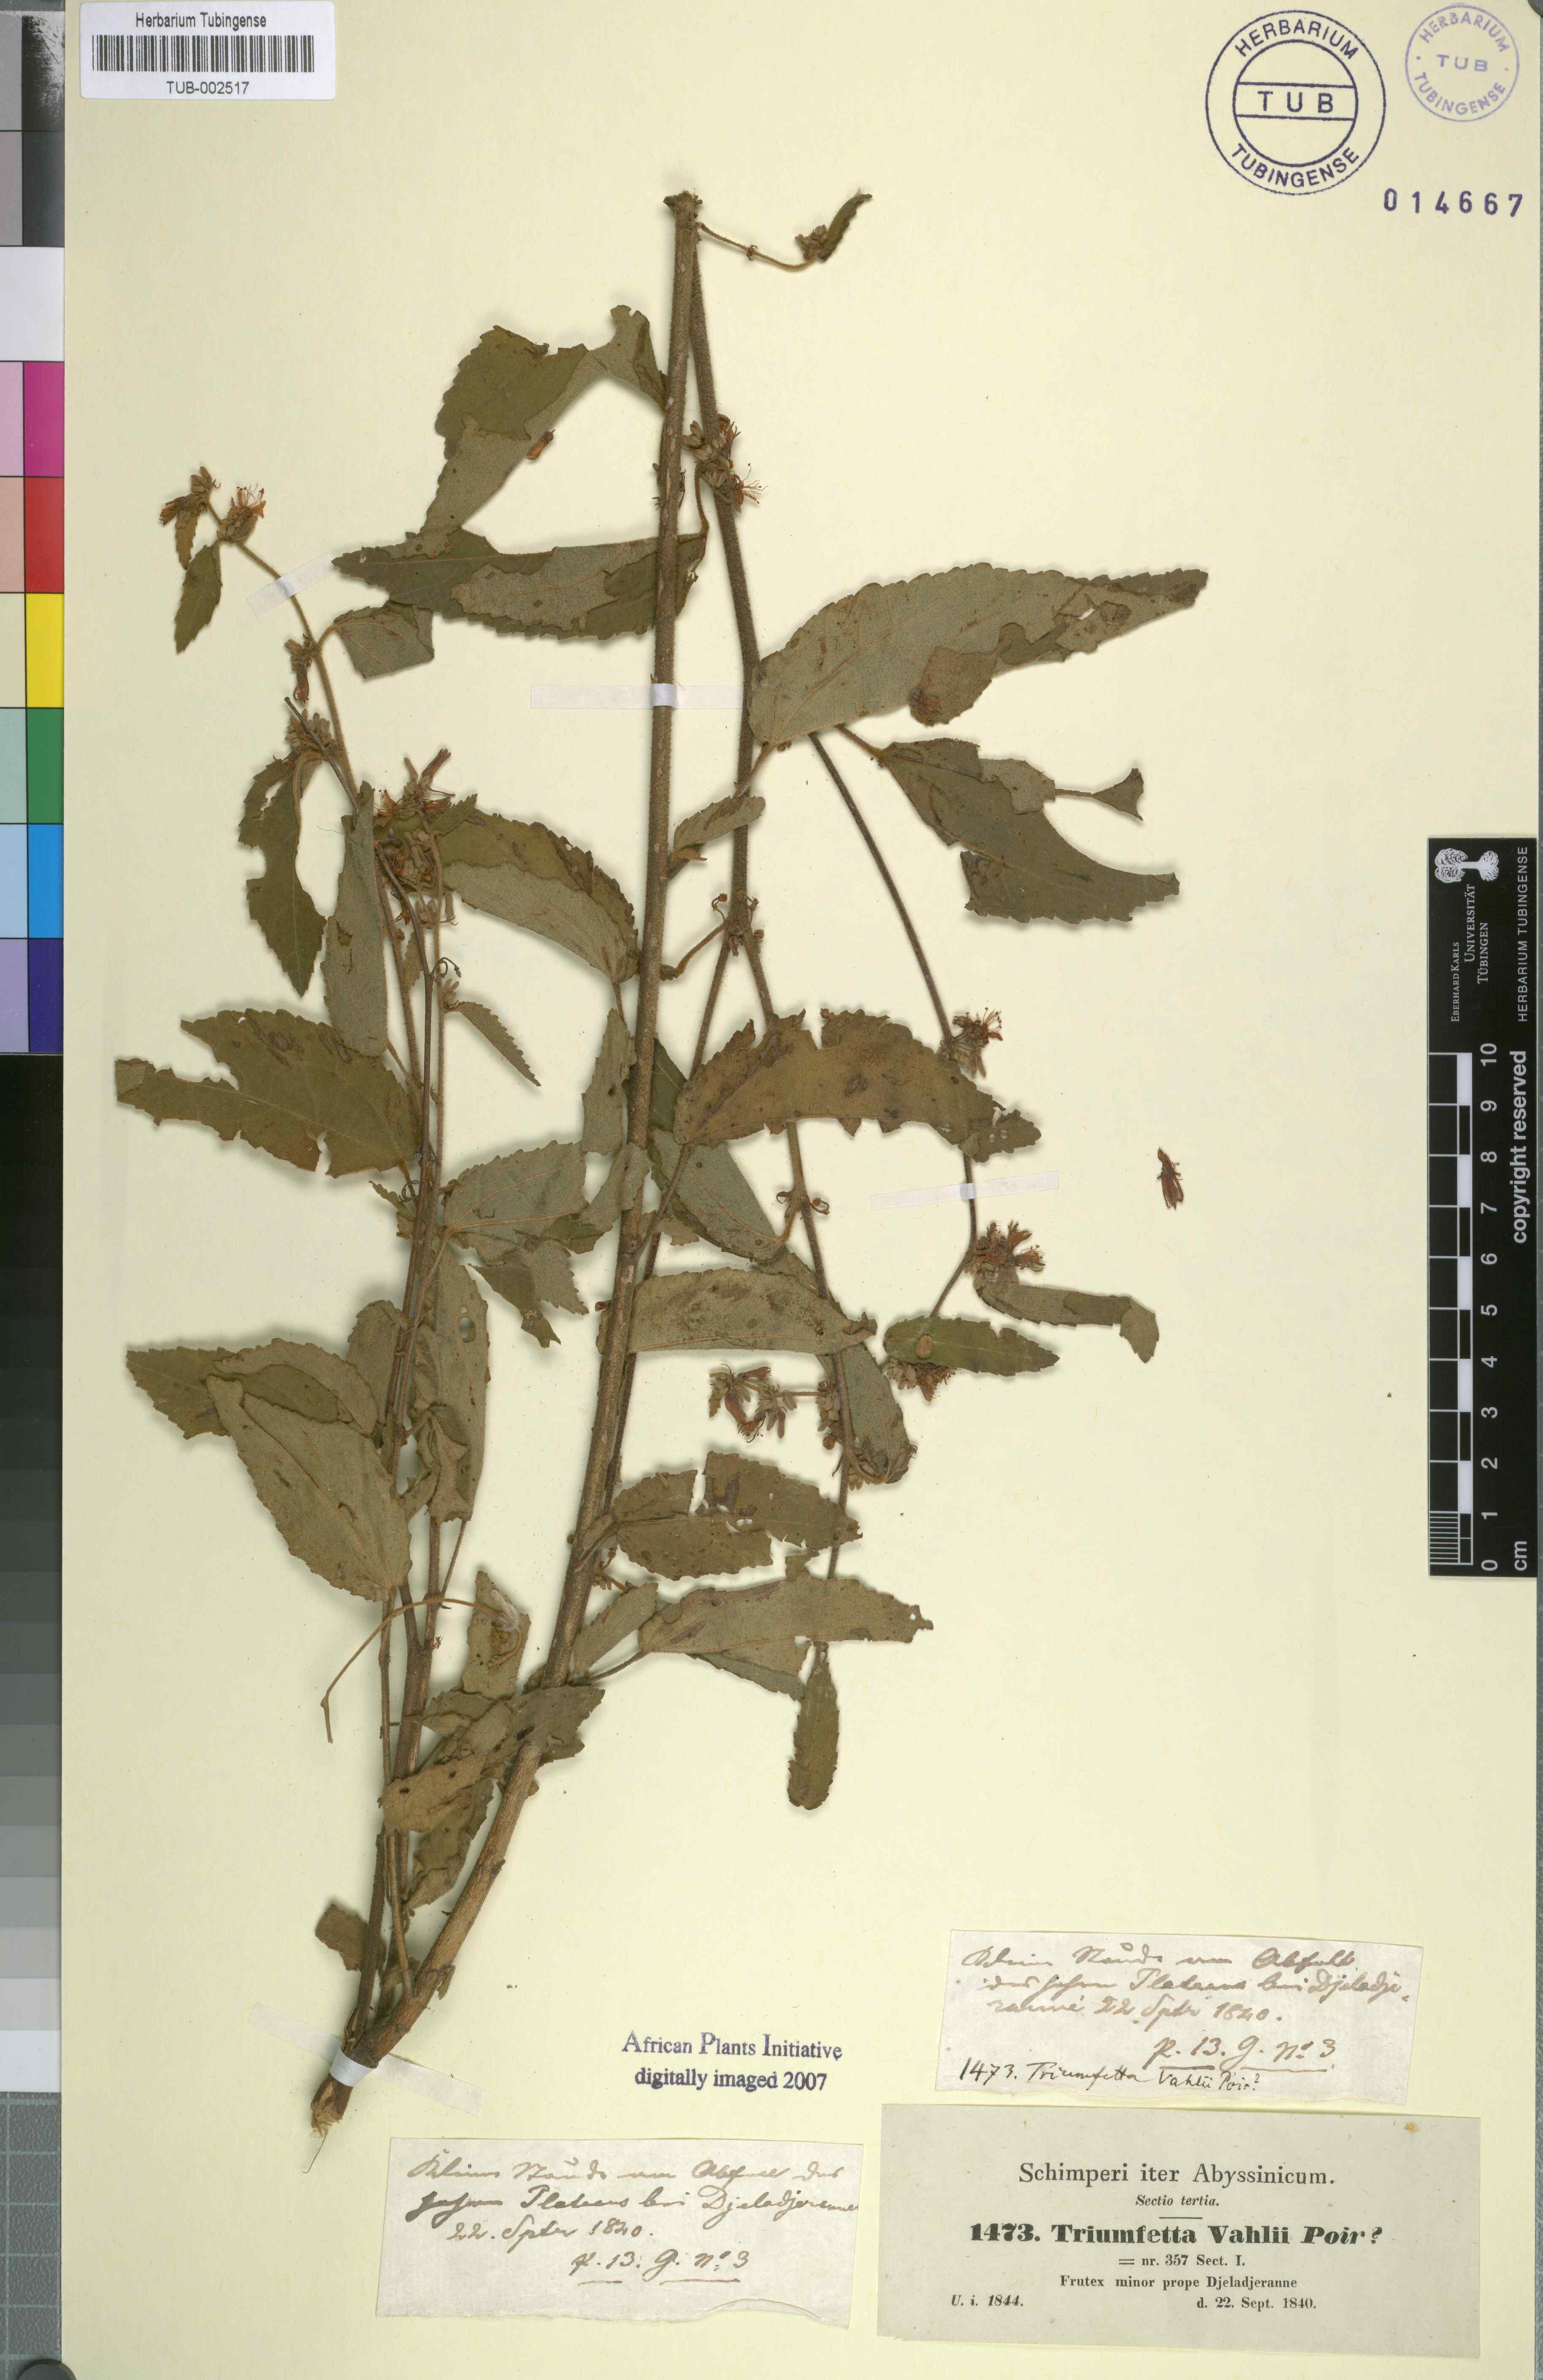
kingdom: Plantae
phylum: Tracheophyta
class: Magnoliopsida
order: Malvales
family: Malvaceae
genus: Triumfetta
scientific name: Triumfetta rhomboidea
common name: Diamond burbark
